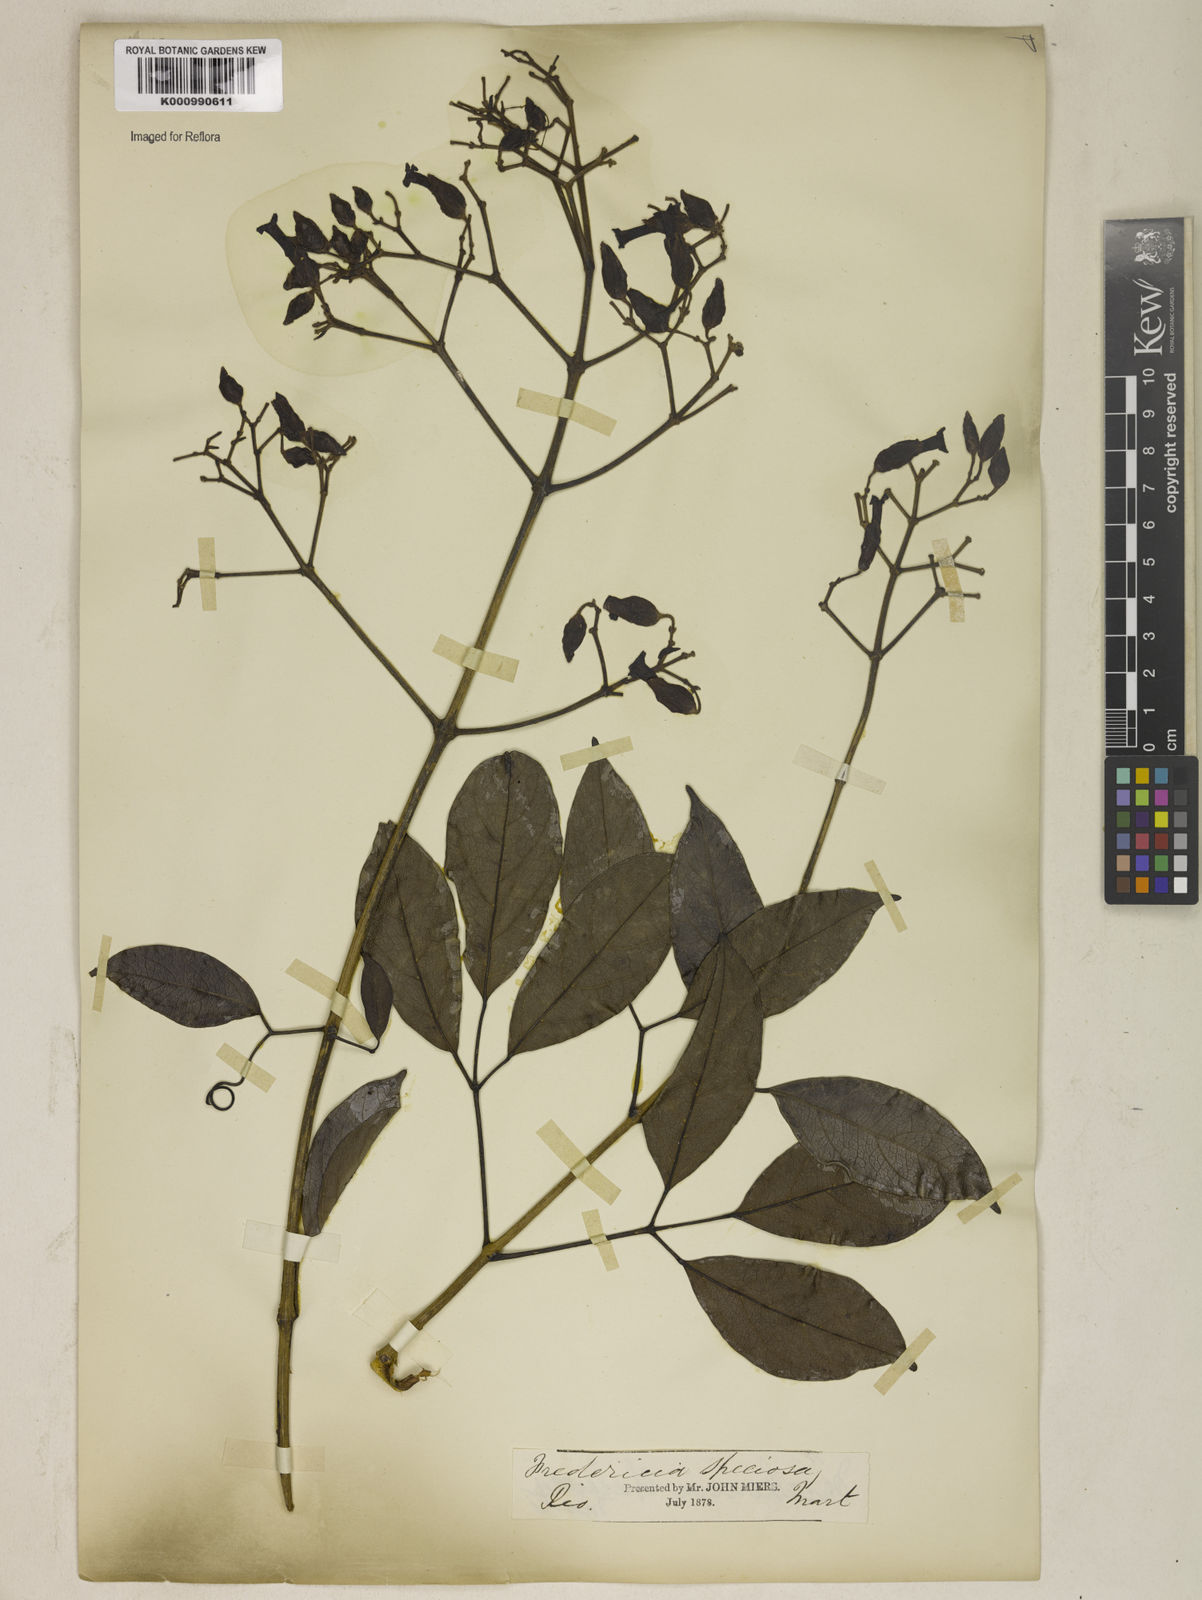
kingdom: Plantae
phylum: Tracheophyta
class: Magnoliopsida
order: Lamiales
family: Bignoniaceae
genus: Fridericia
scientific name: Fridericia speciosa
